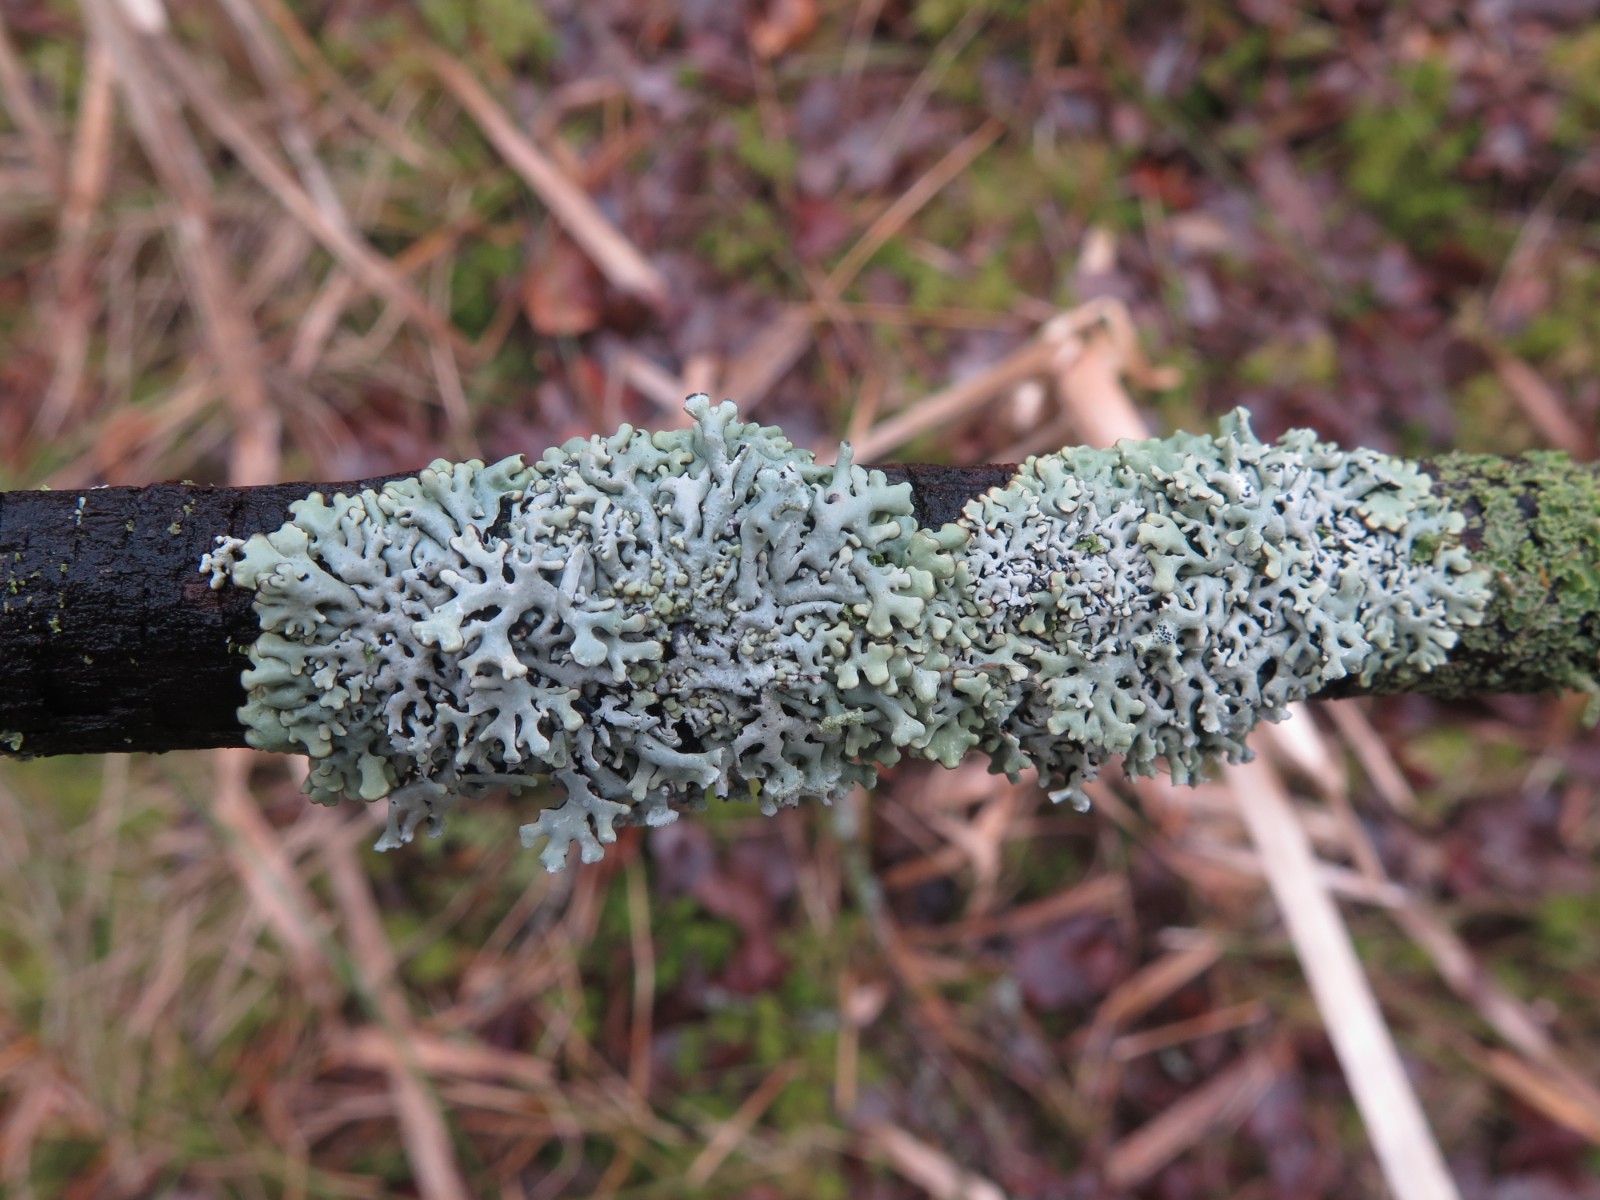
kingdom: Fungi
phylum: Ascomycota
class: Lecanoromycetes
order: Lecanorales
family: Parmeliaceae
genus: Hypogymnia
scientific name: Hypogymnia physodes
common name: almindelig kvistlav
